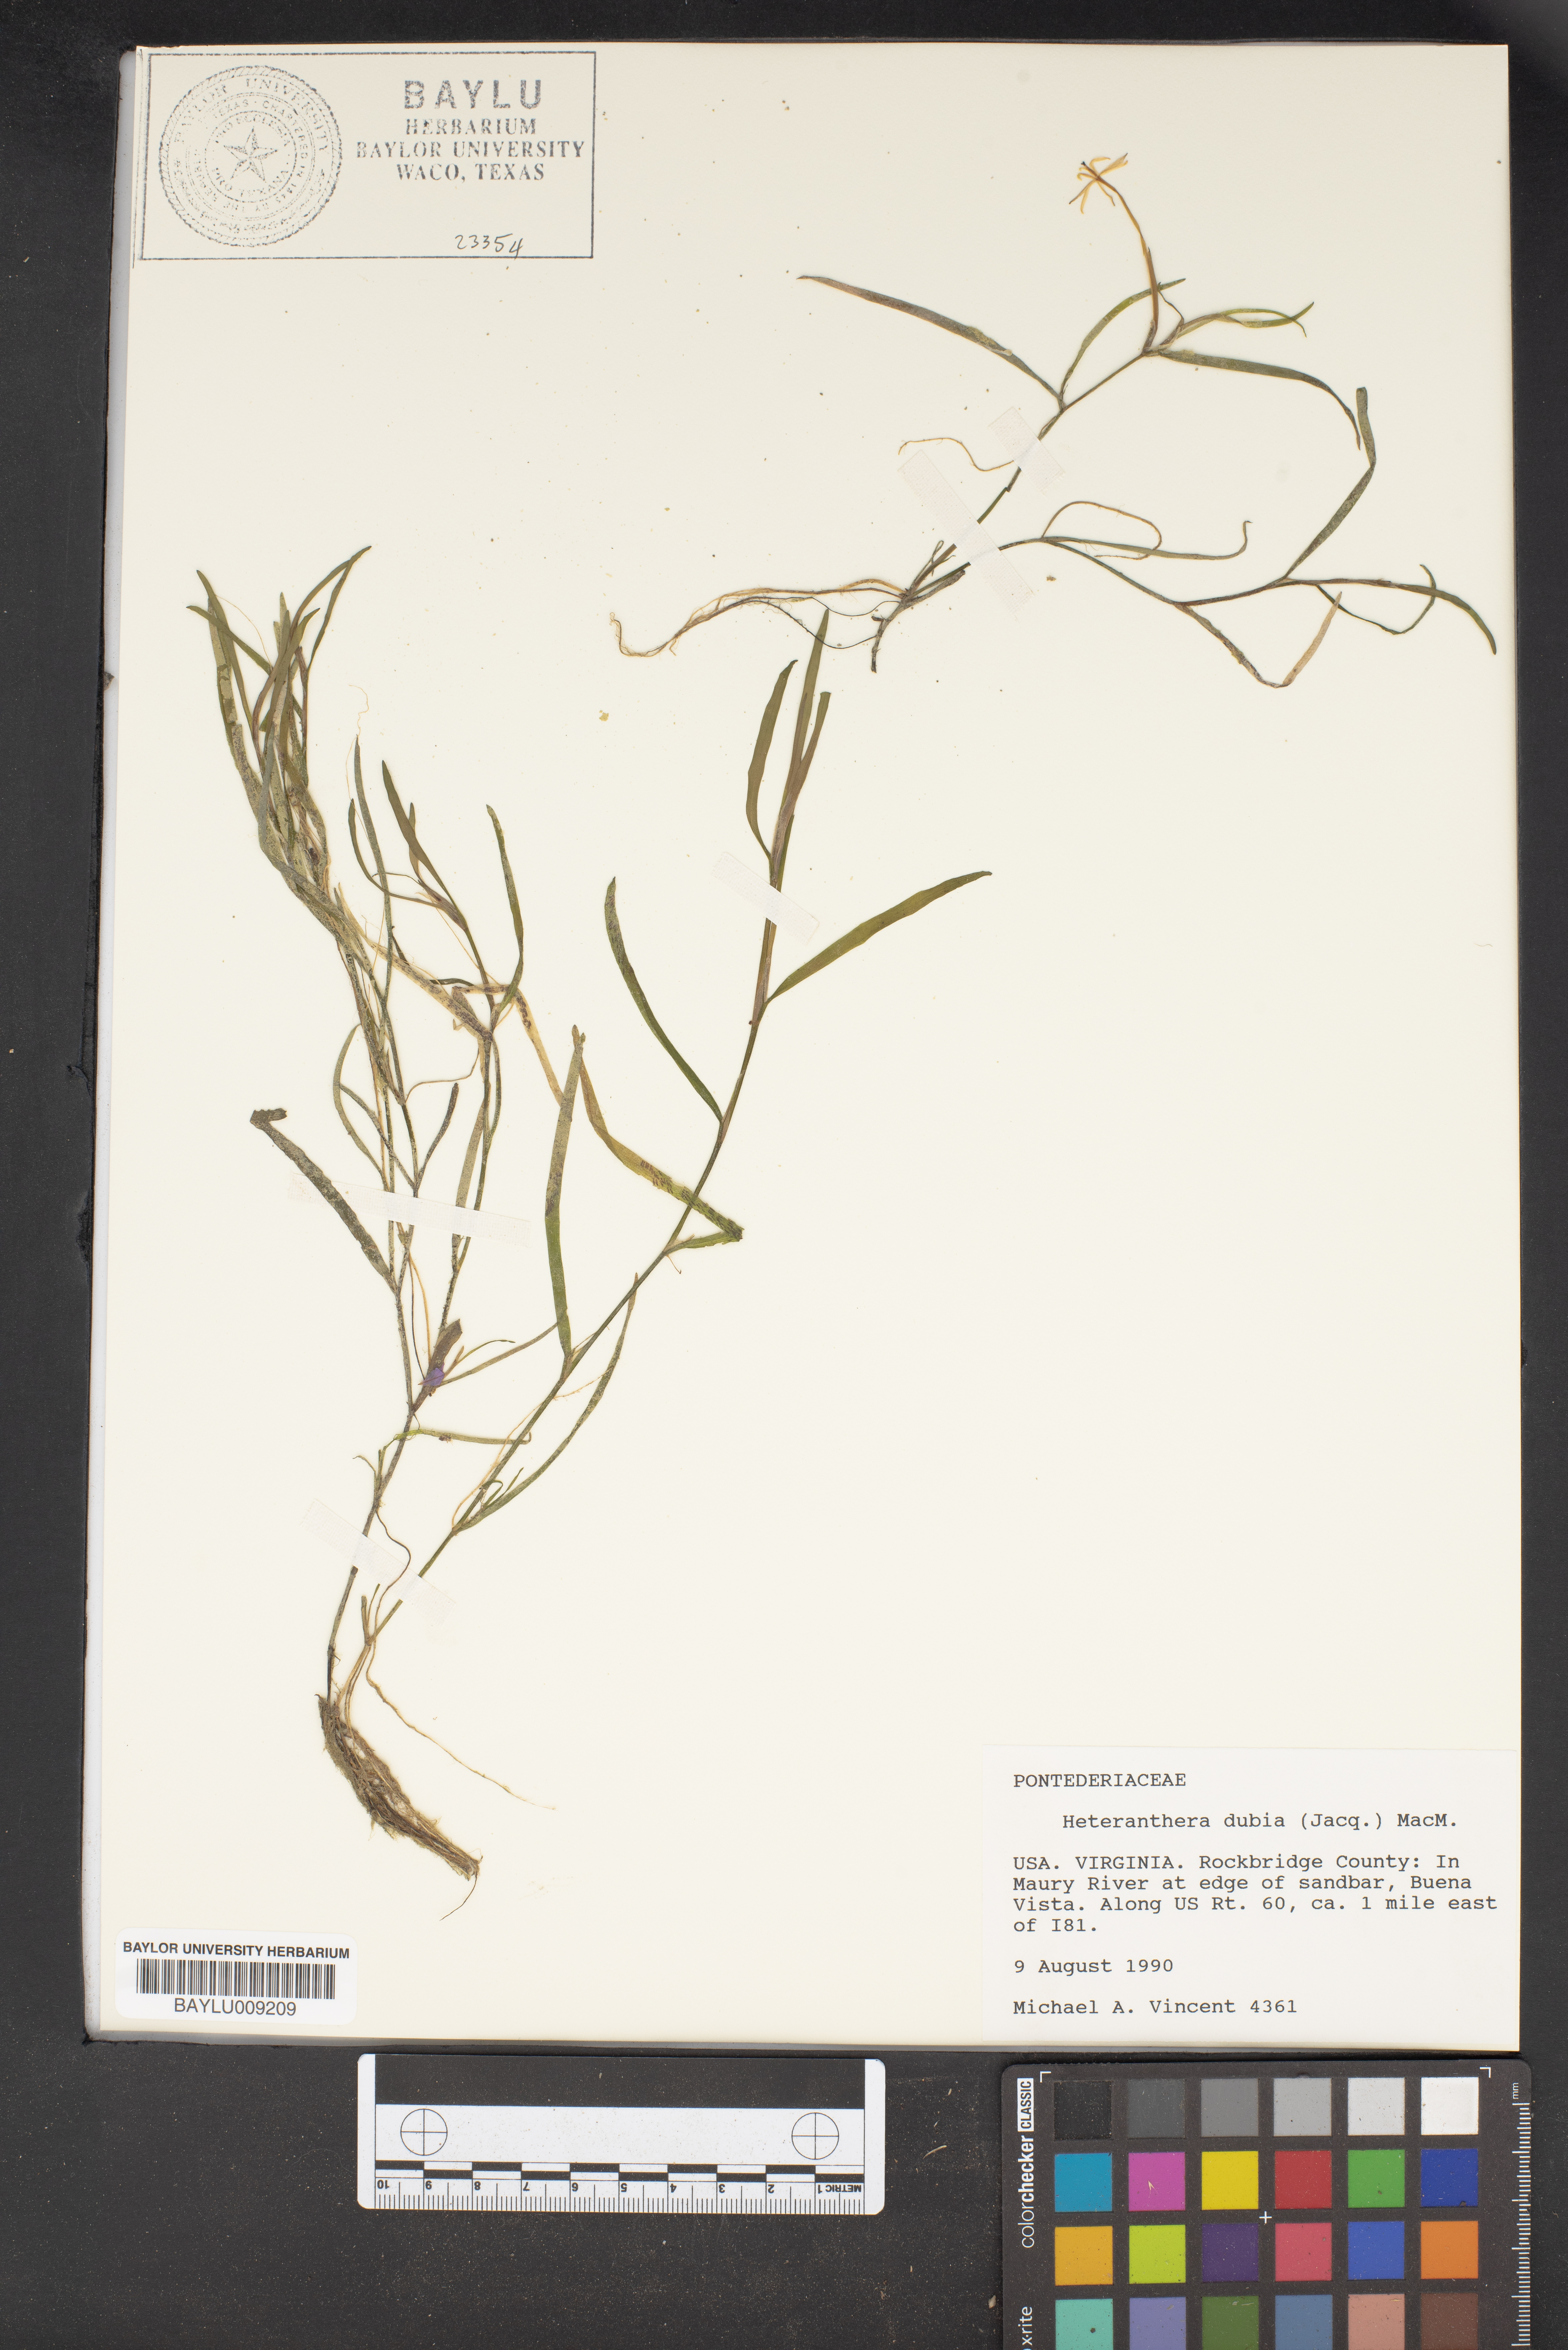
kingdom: Plantae
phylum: Tracheophyta
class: Liliopsida
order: Commelinales
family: Pontederiaceae
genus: Heteranthera
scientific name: Heteranthera dubia
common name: Grass-leaved mud plantain
